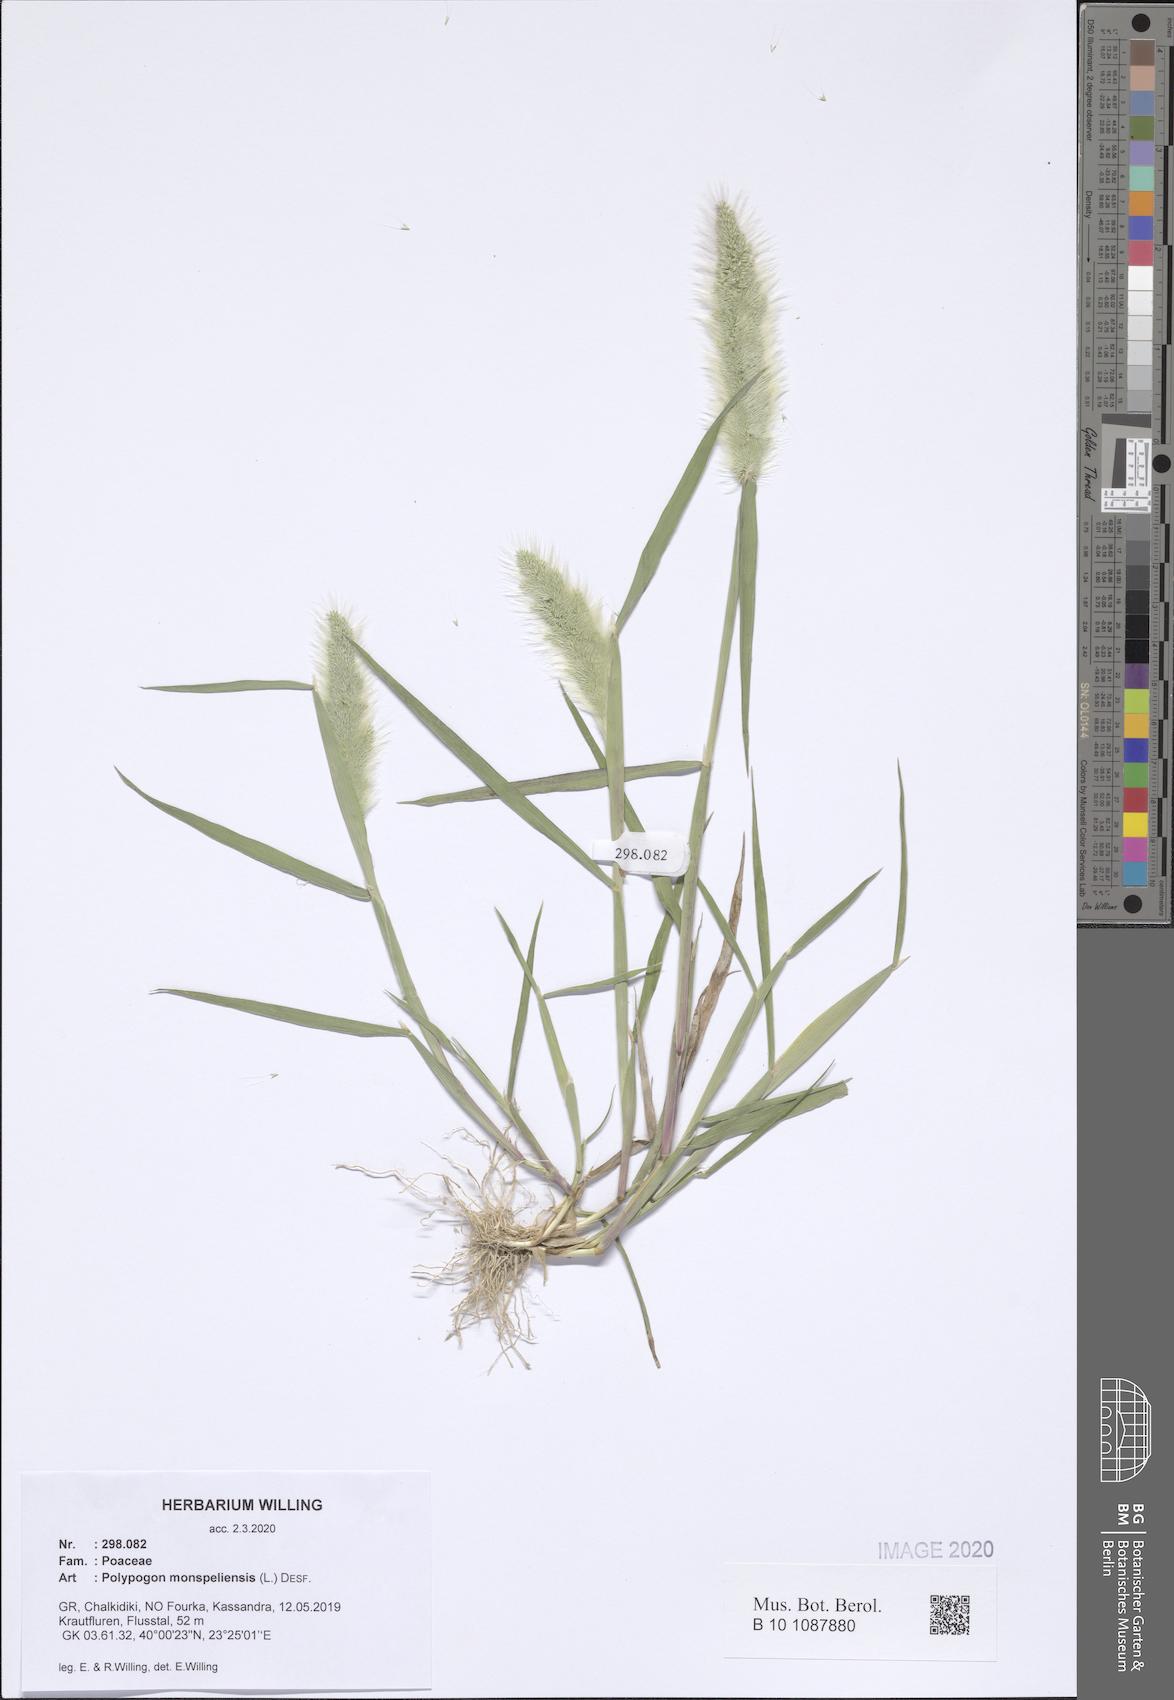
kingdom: Plantae
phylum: Tracheophyta
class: Liliopsida
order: Poales
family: Poaceae
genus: Polypogon
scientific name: Polypogon monspeliensis
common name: Annual rabbitsfoot grass
